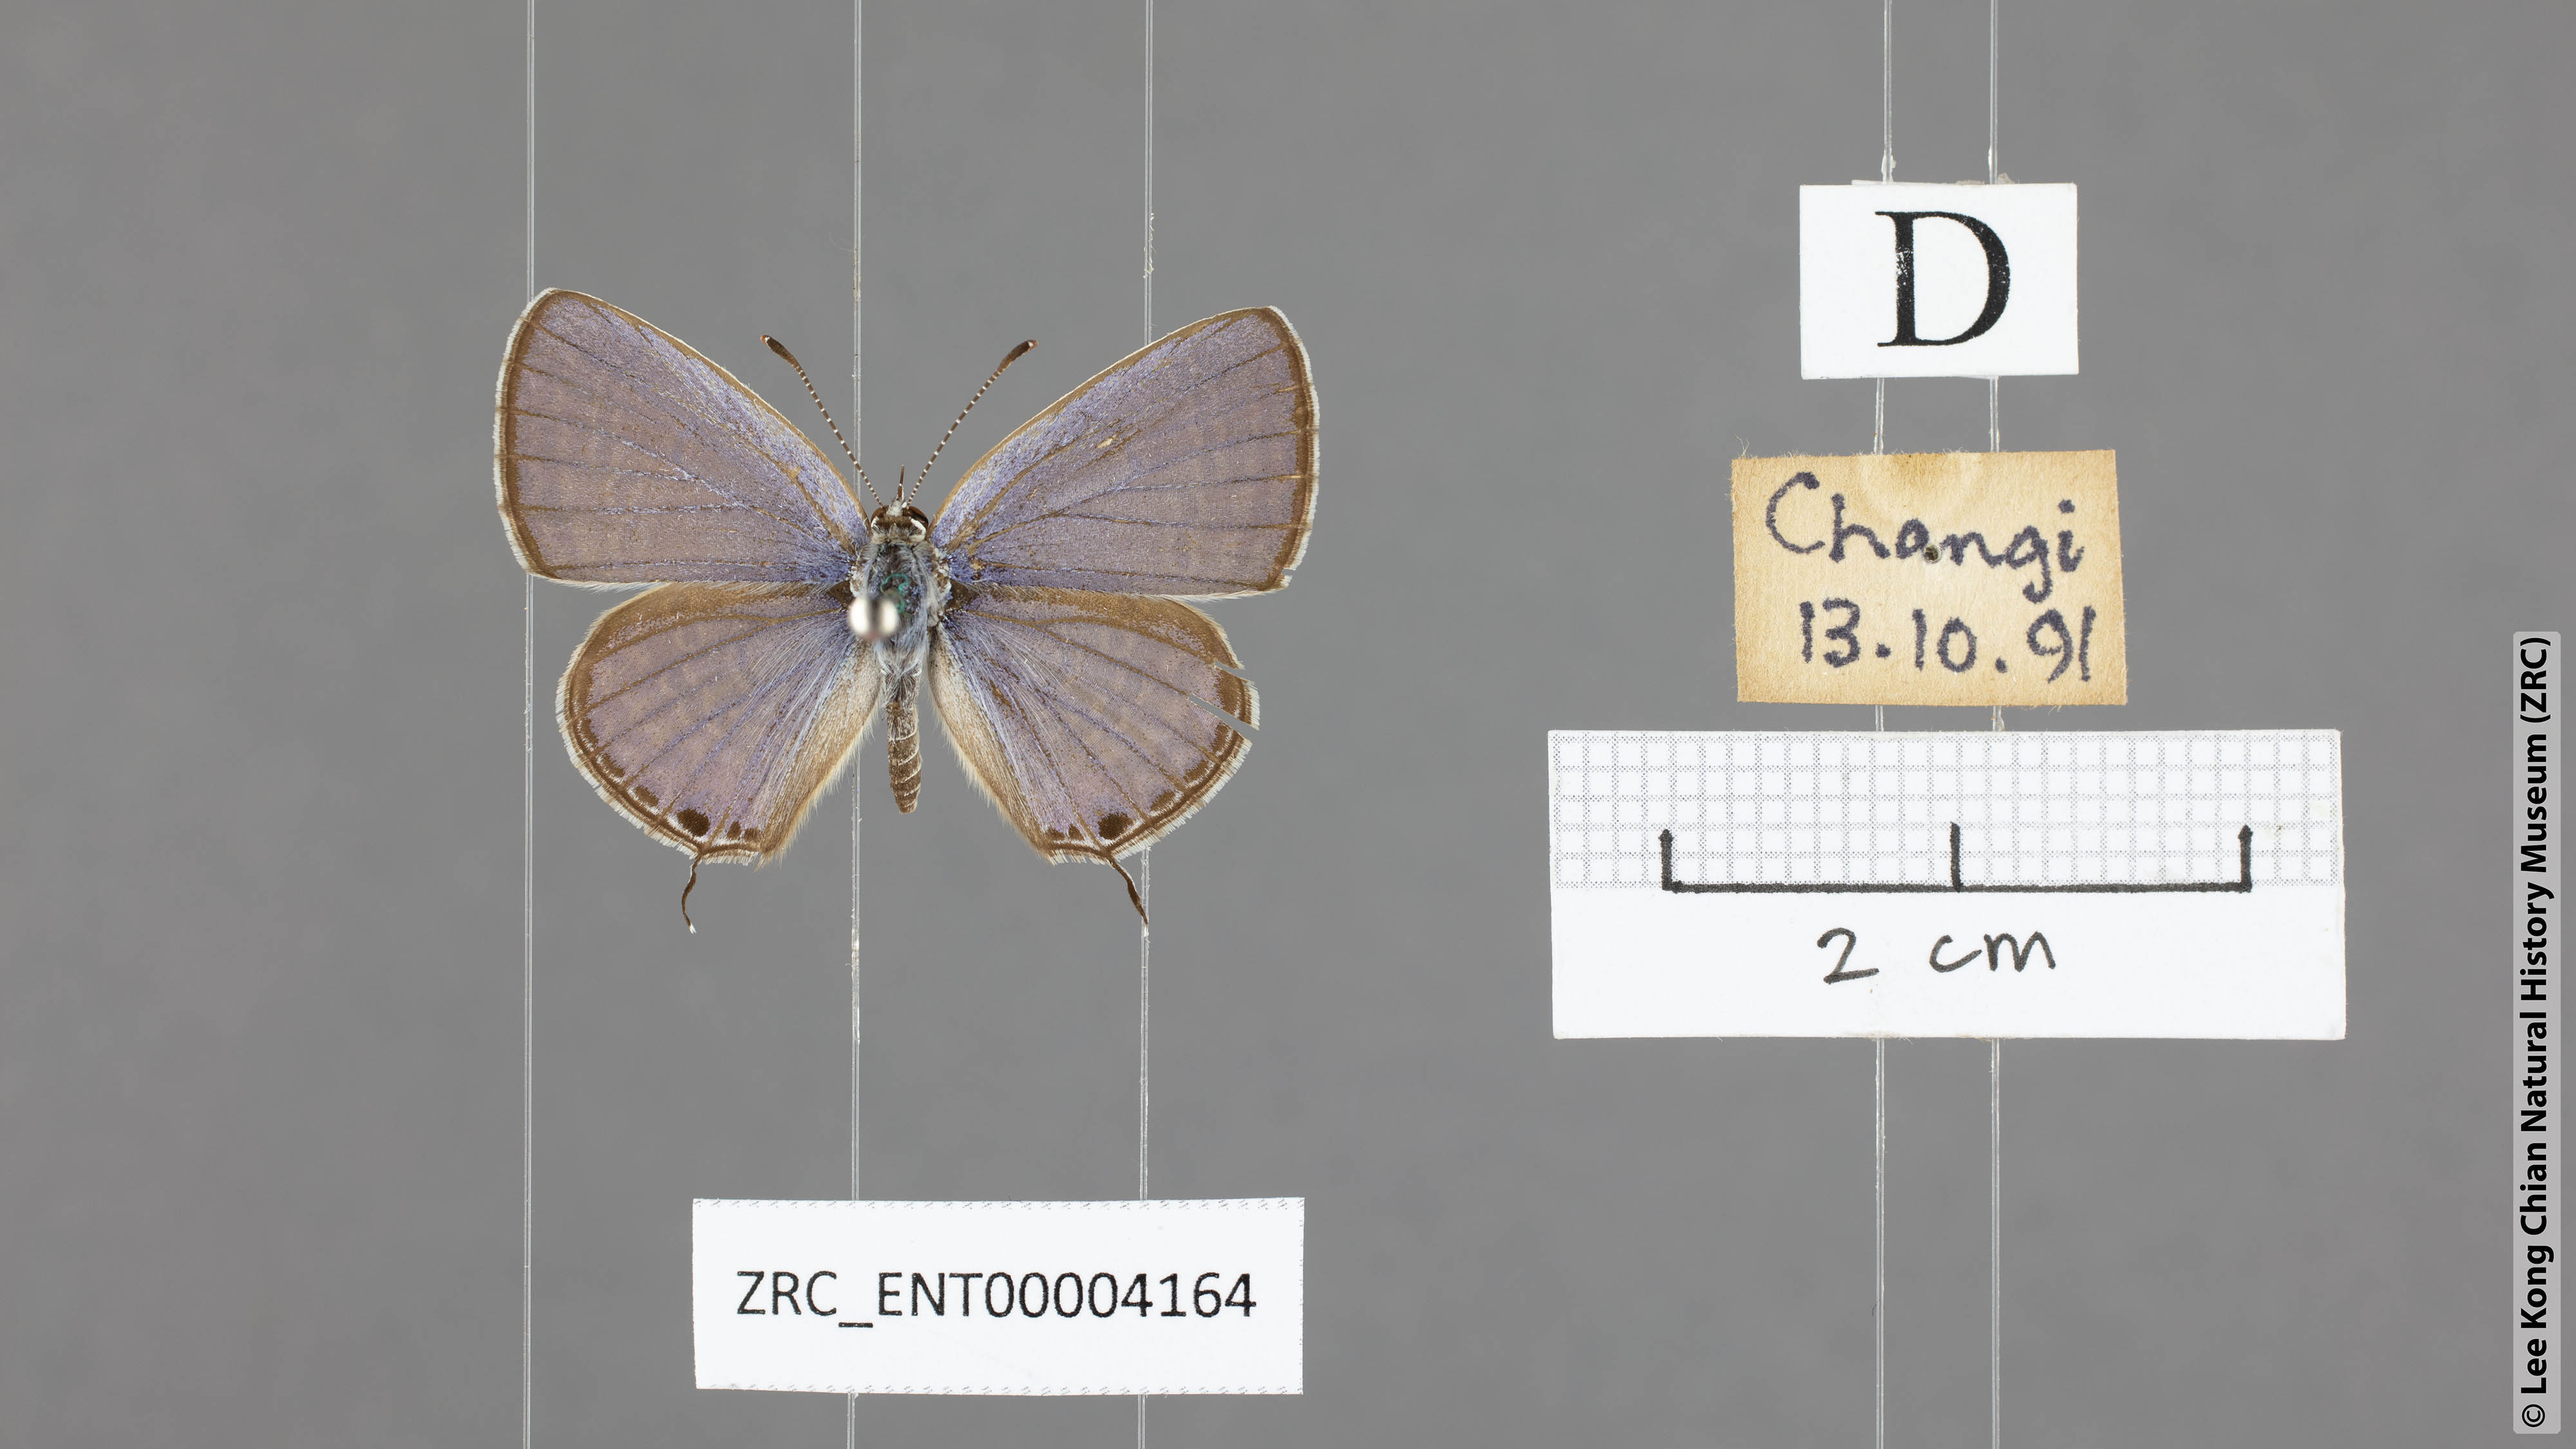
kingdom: Animalia
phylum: Arthropoda
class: Insecta
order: Lepidoptera
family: Lycaenidae
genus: Edales
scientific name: Edales pandava
